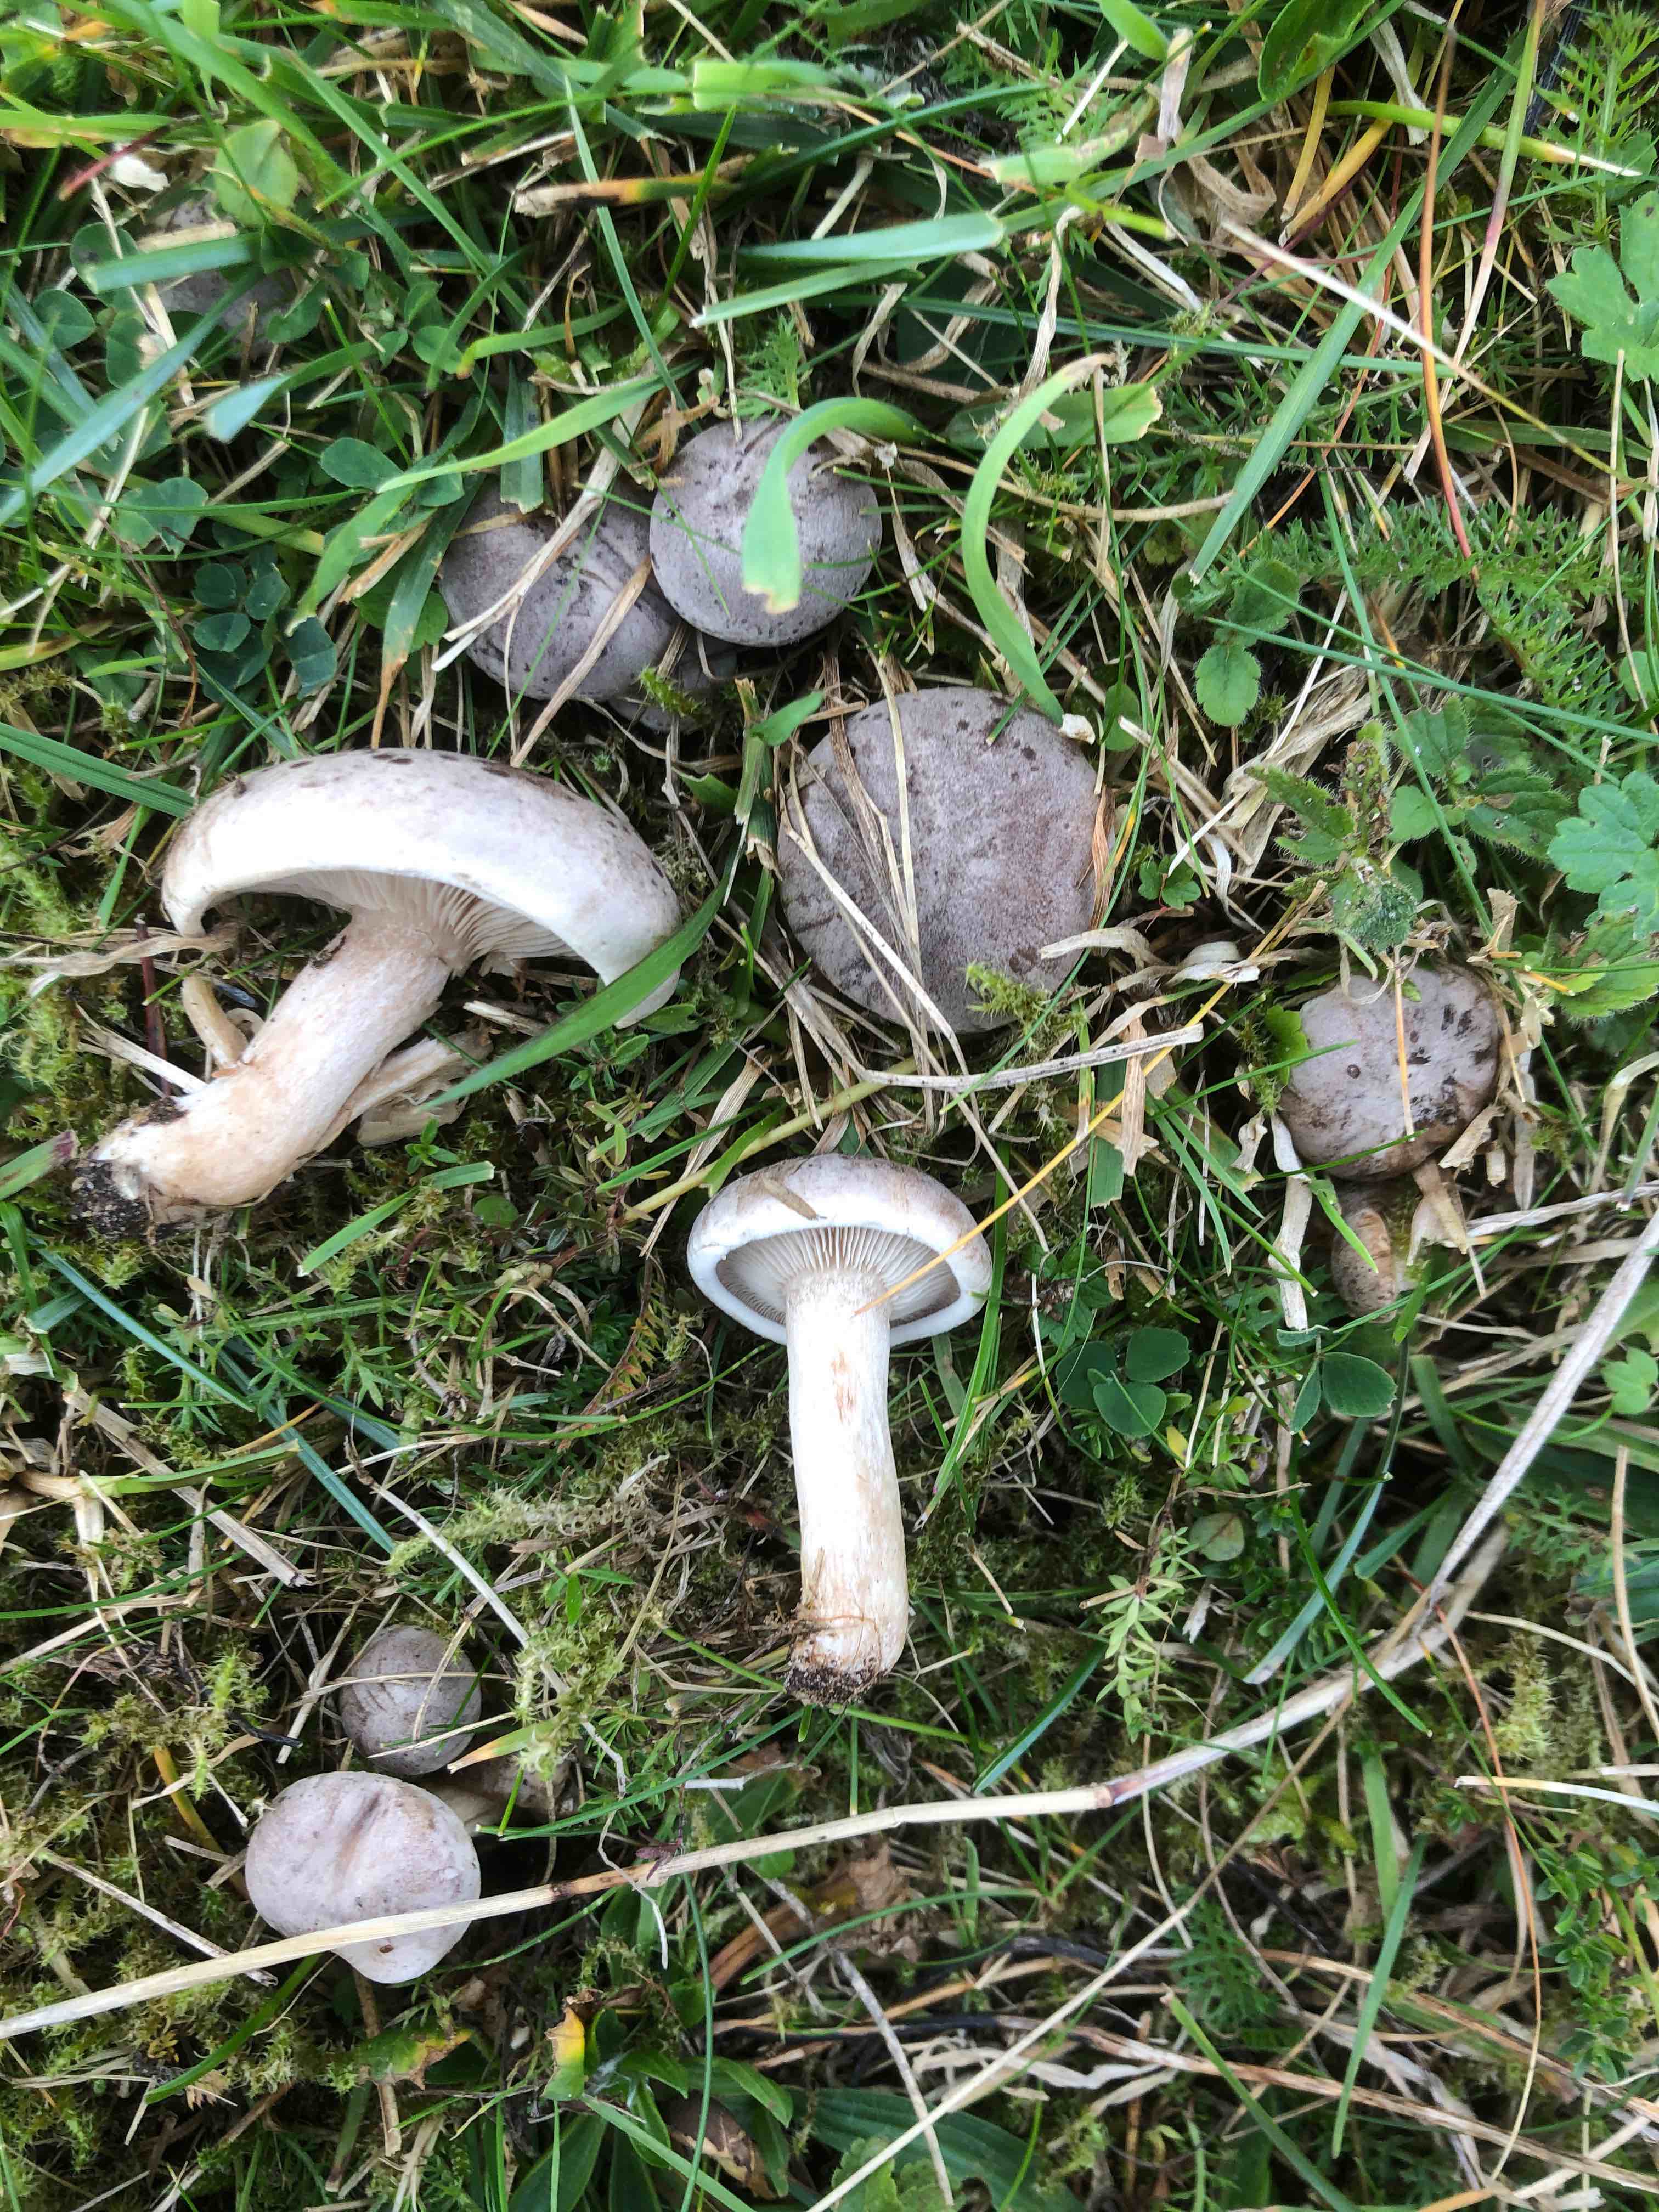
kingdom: Fungi
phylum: Basidiomycota
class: Agaricomycetes
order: Agaricales
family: Tricholomataceae
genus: Lepista
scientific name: Lepista panaeolus
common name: marmoreret hekseringshat
